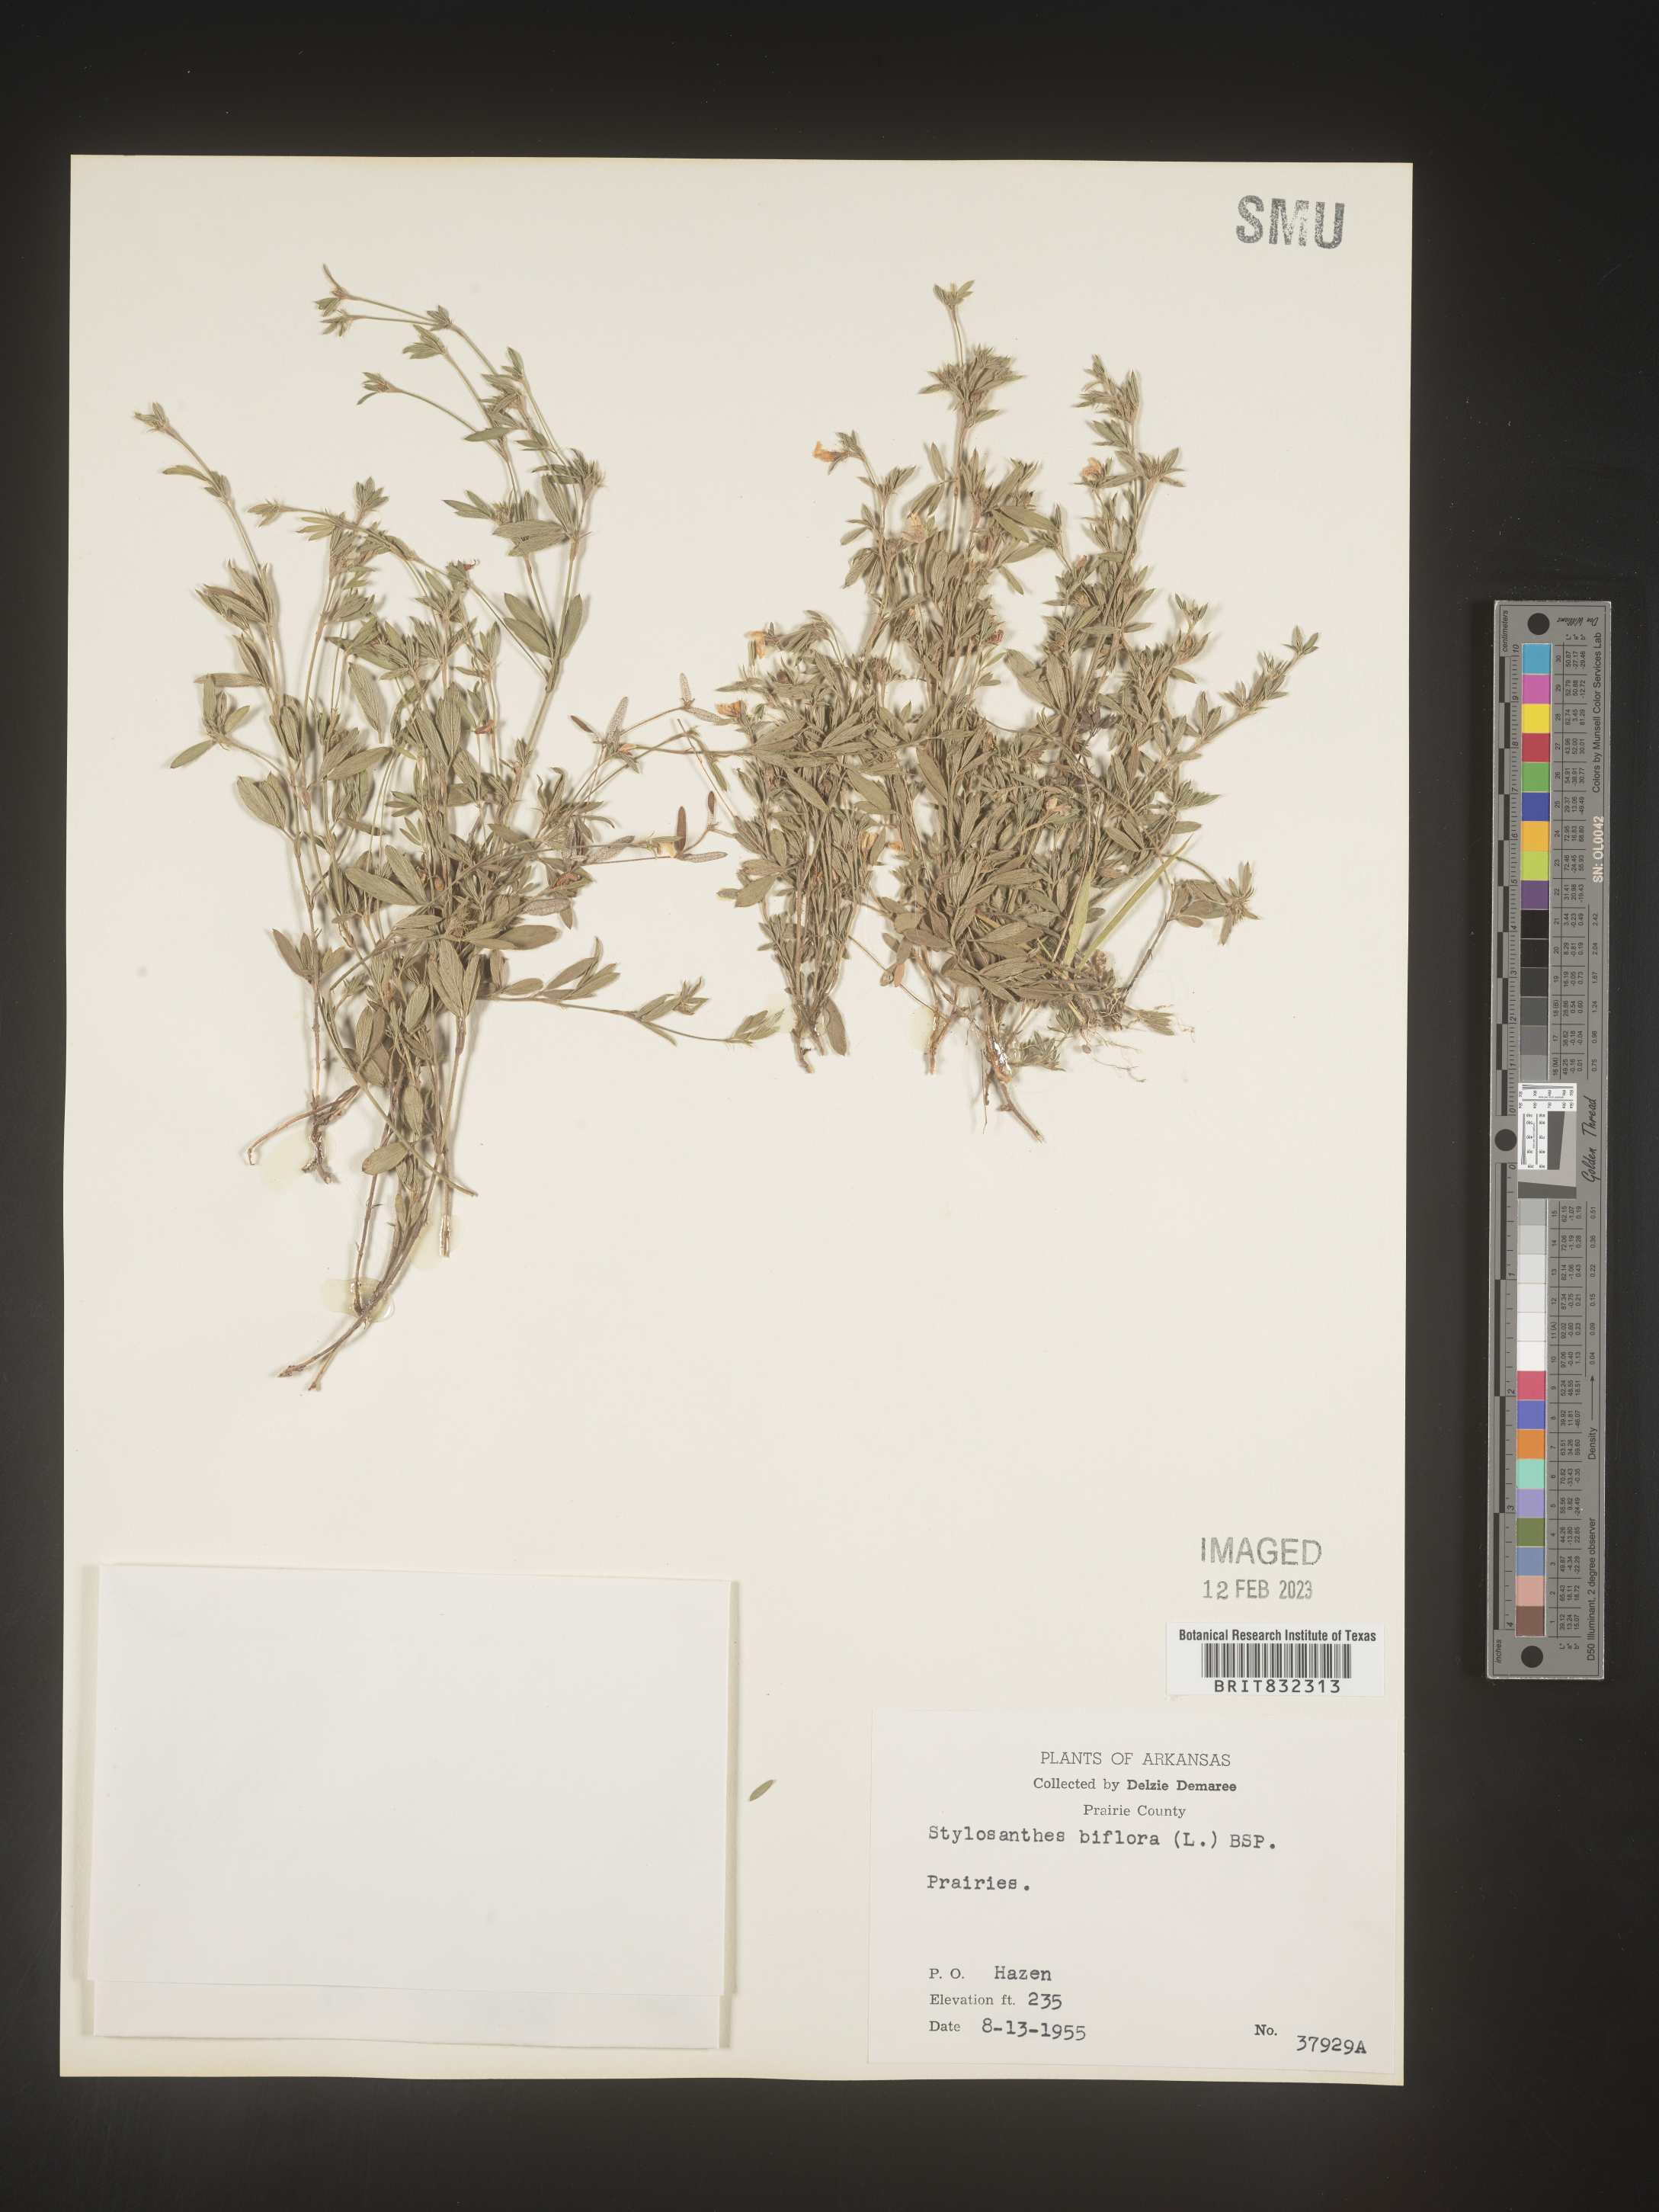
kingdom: Plantae
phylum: Tracheophyta
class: Magnoliopsida
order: Fabales
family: Fabaceae
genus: Stylosanthes
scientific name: Stylosanthes biflora
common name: Two-flower pencil-flower
